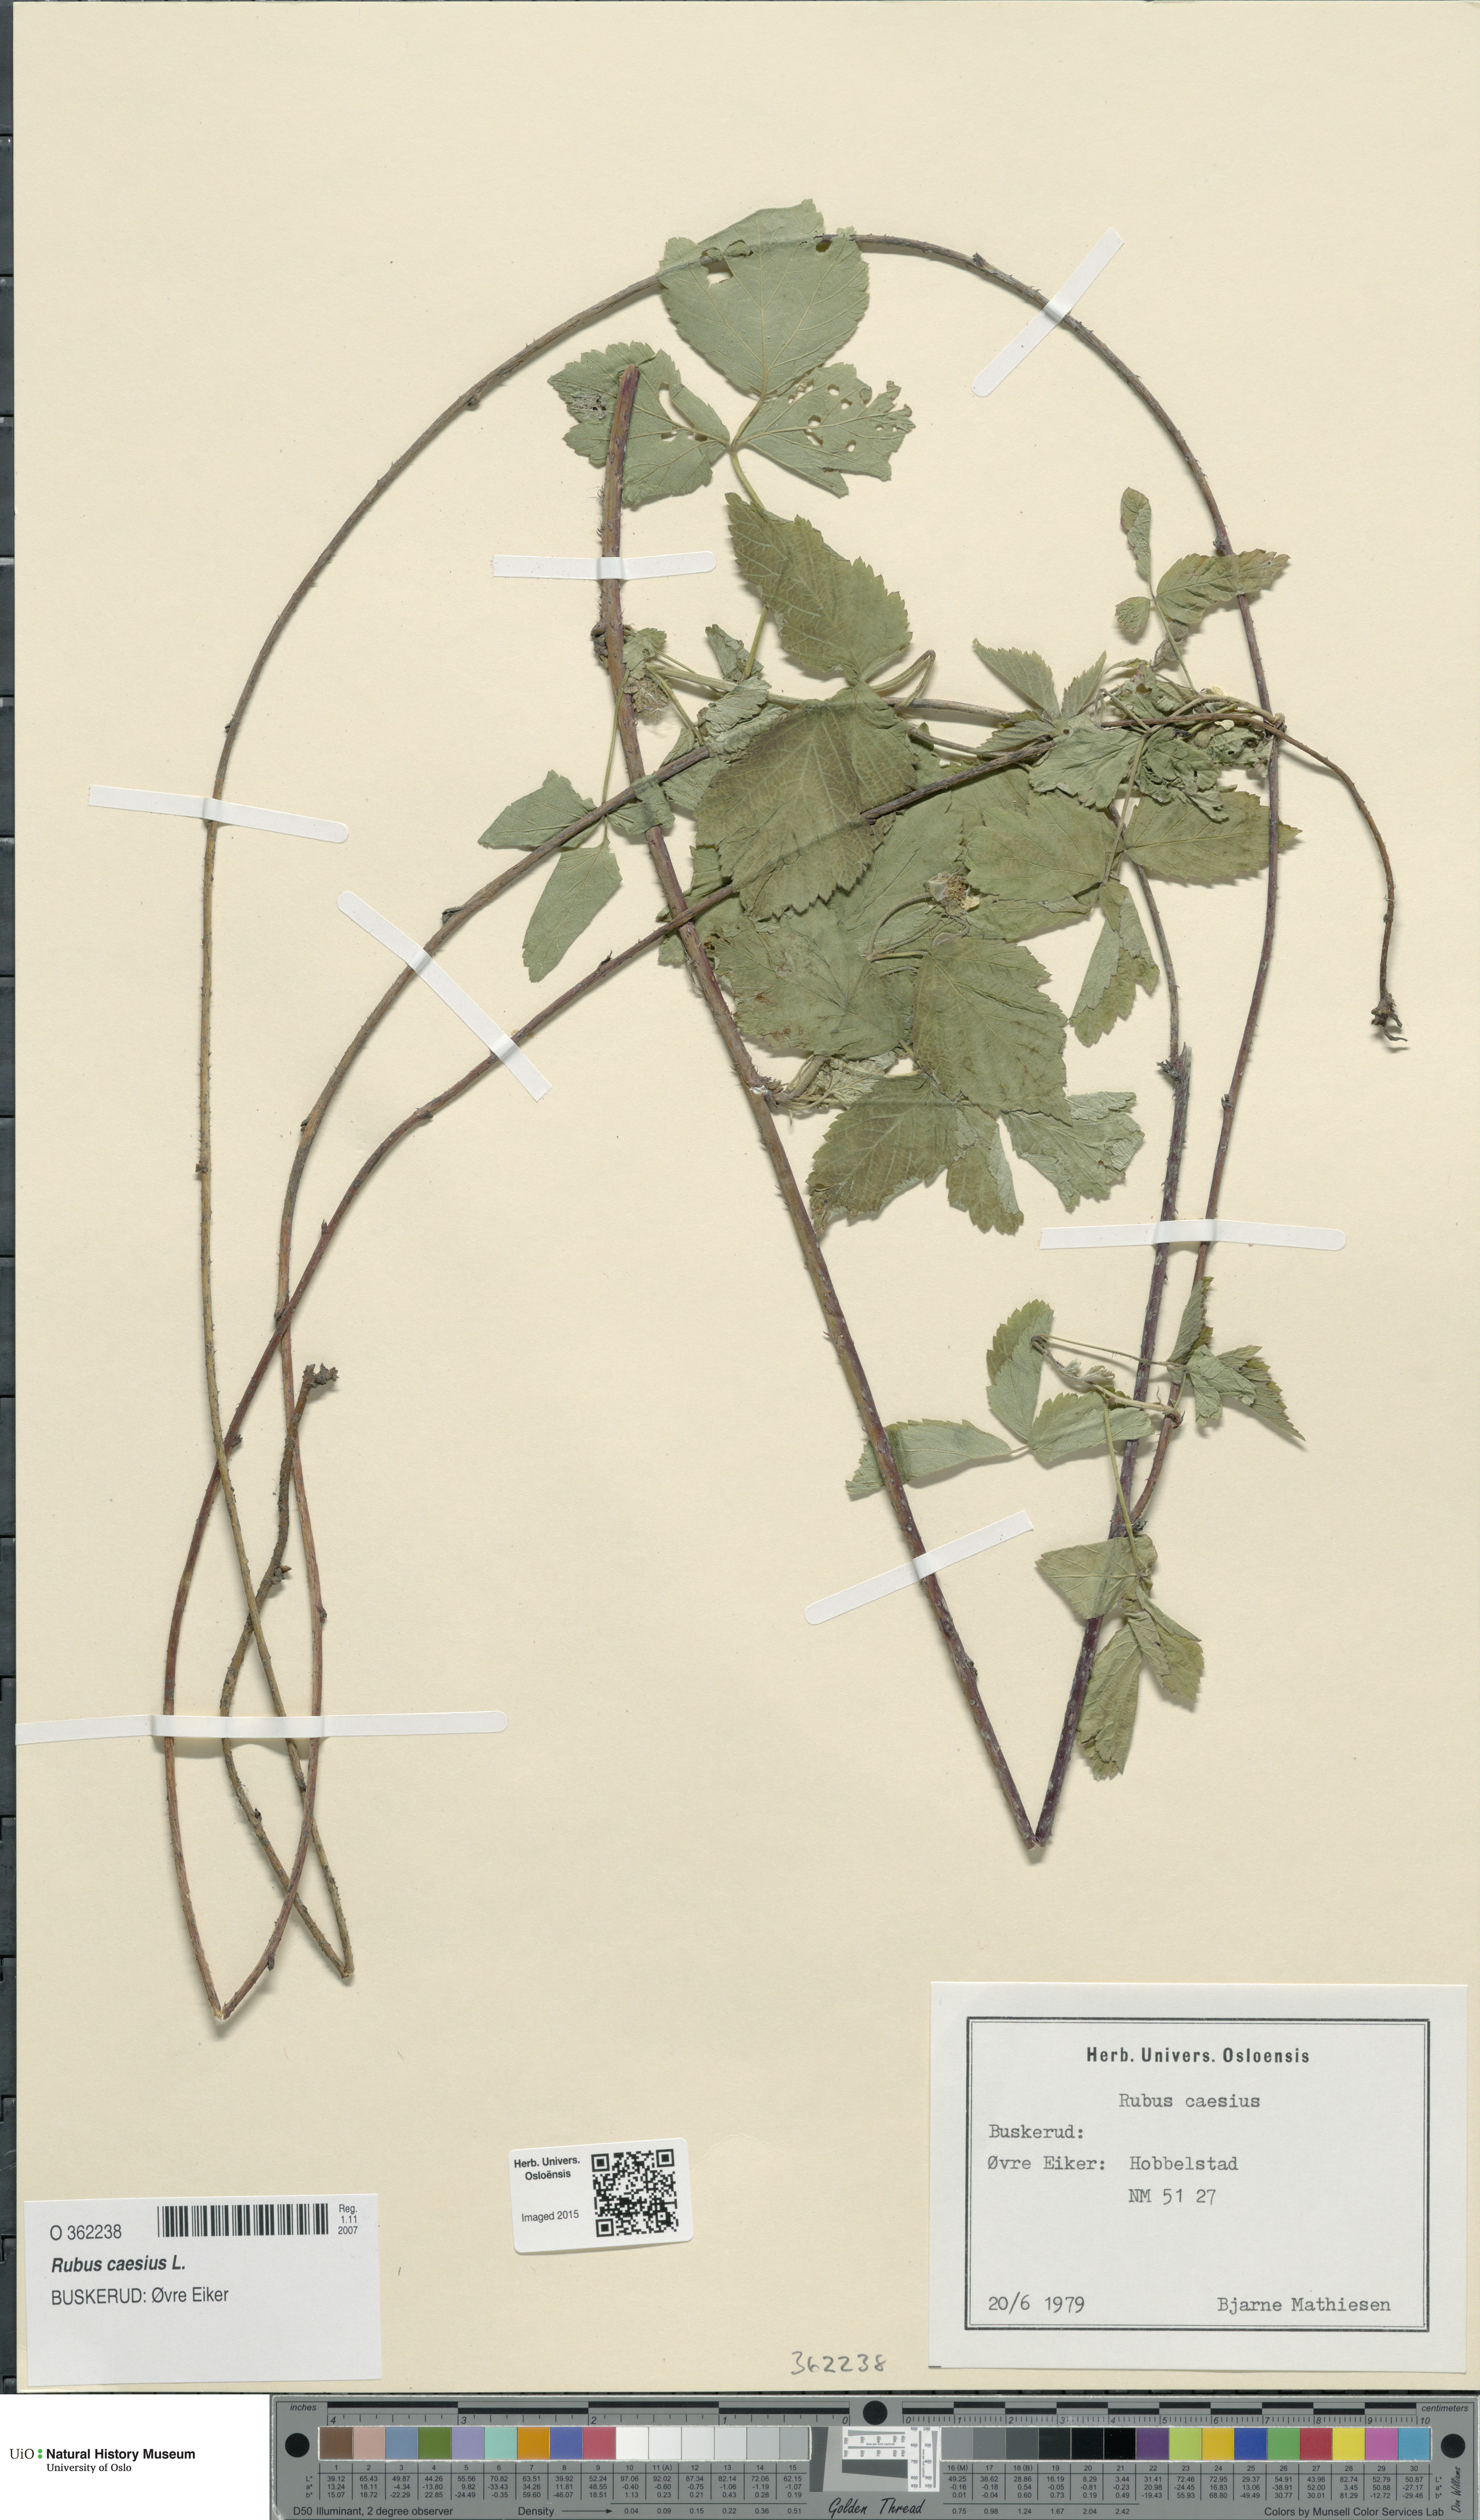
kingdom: Plantae
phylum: Tracheophyta
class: Magnoliopsida
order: Rosales
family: Rosaceae
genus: Rubus
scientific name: Rubus caesius
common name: Dewberry
